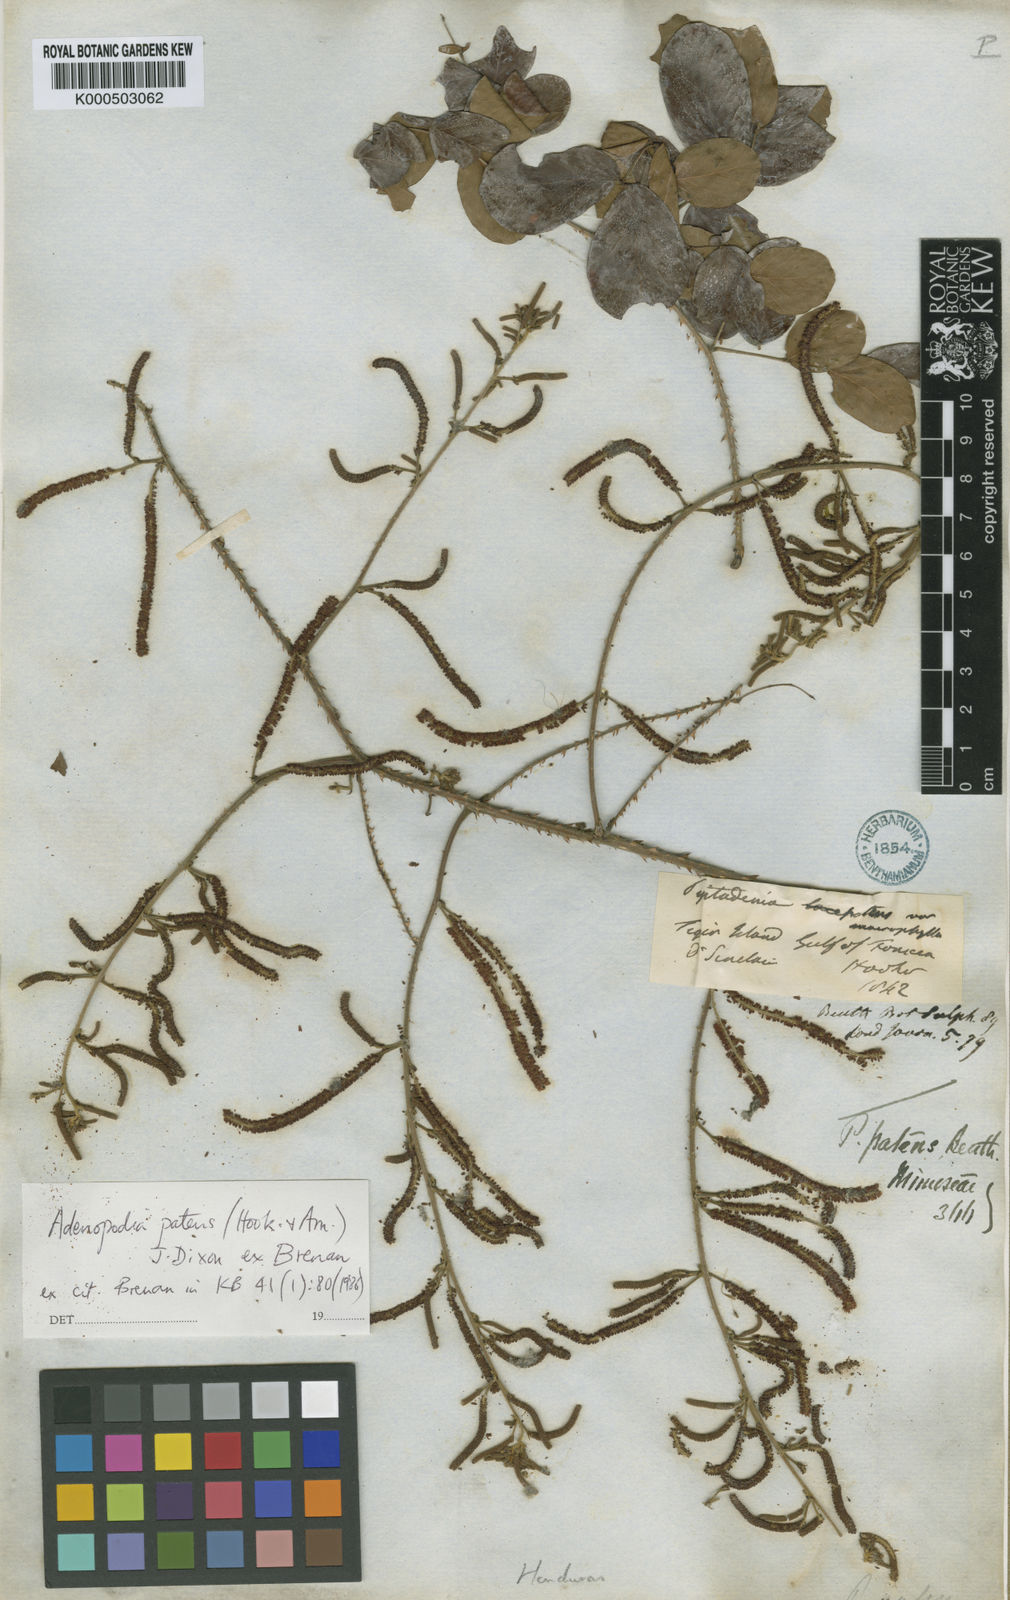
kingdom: Plantae
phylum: Tracheophyta
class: Magnoliopsida
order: Fabales
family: Fabaceae
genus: Adenopodia
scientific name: Adenopodia patens
